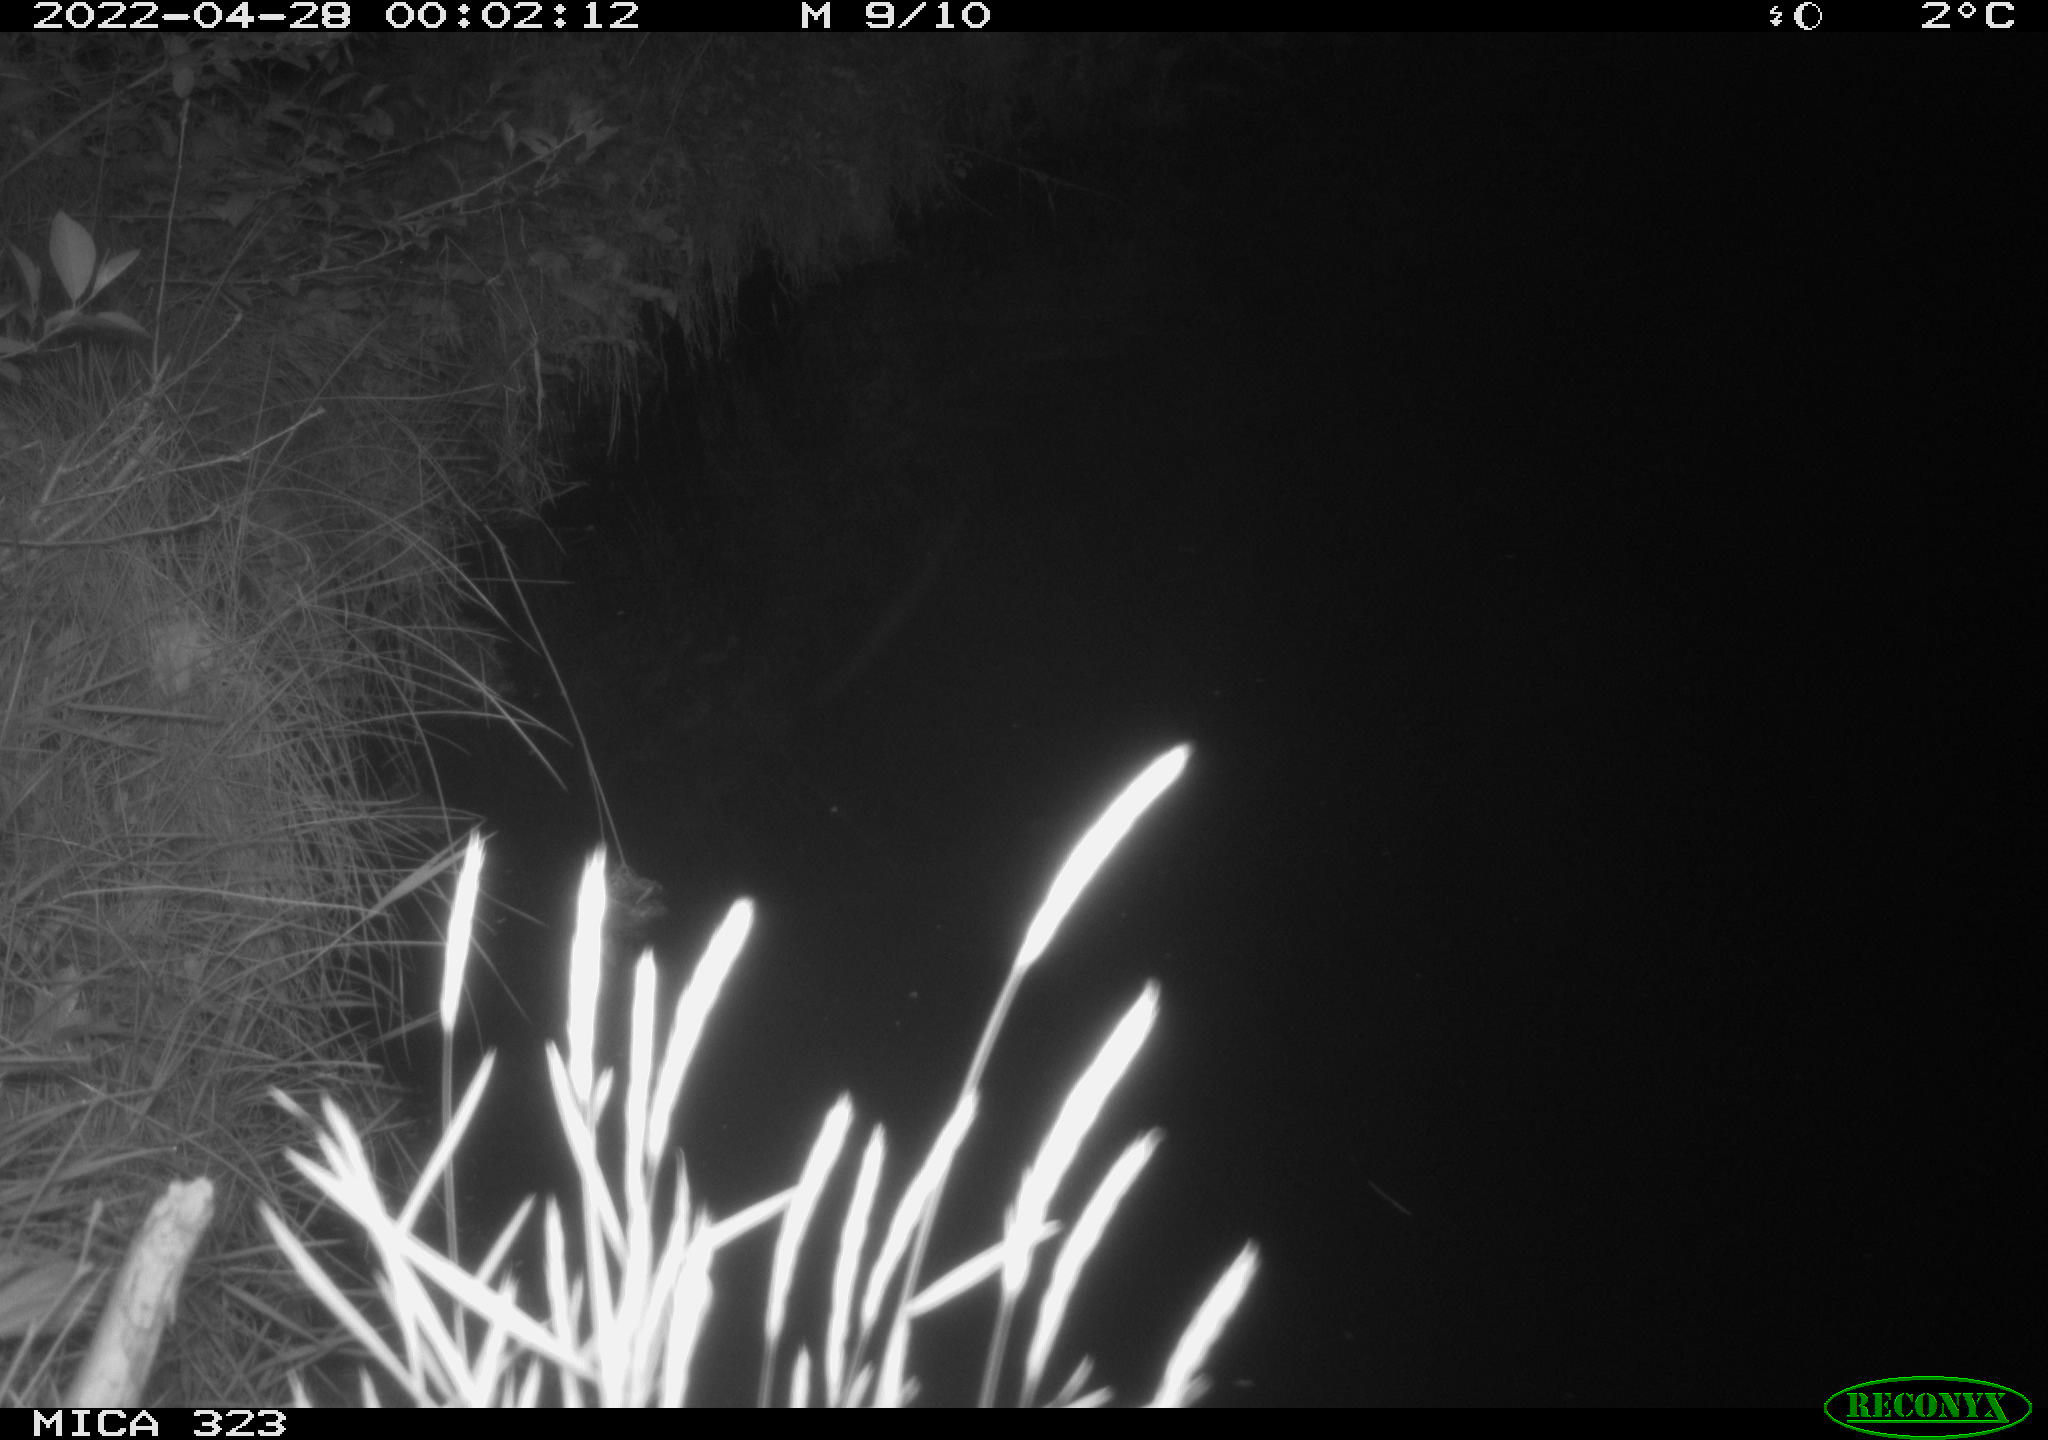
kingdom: Animalia
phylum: Chordata
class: Aves
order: Anseriformes
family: Anatidae
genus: Anas
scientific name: Anas platyrhynchos
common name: Mallard
